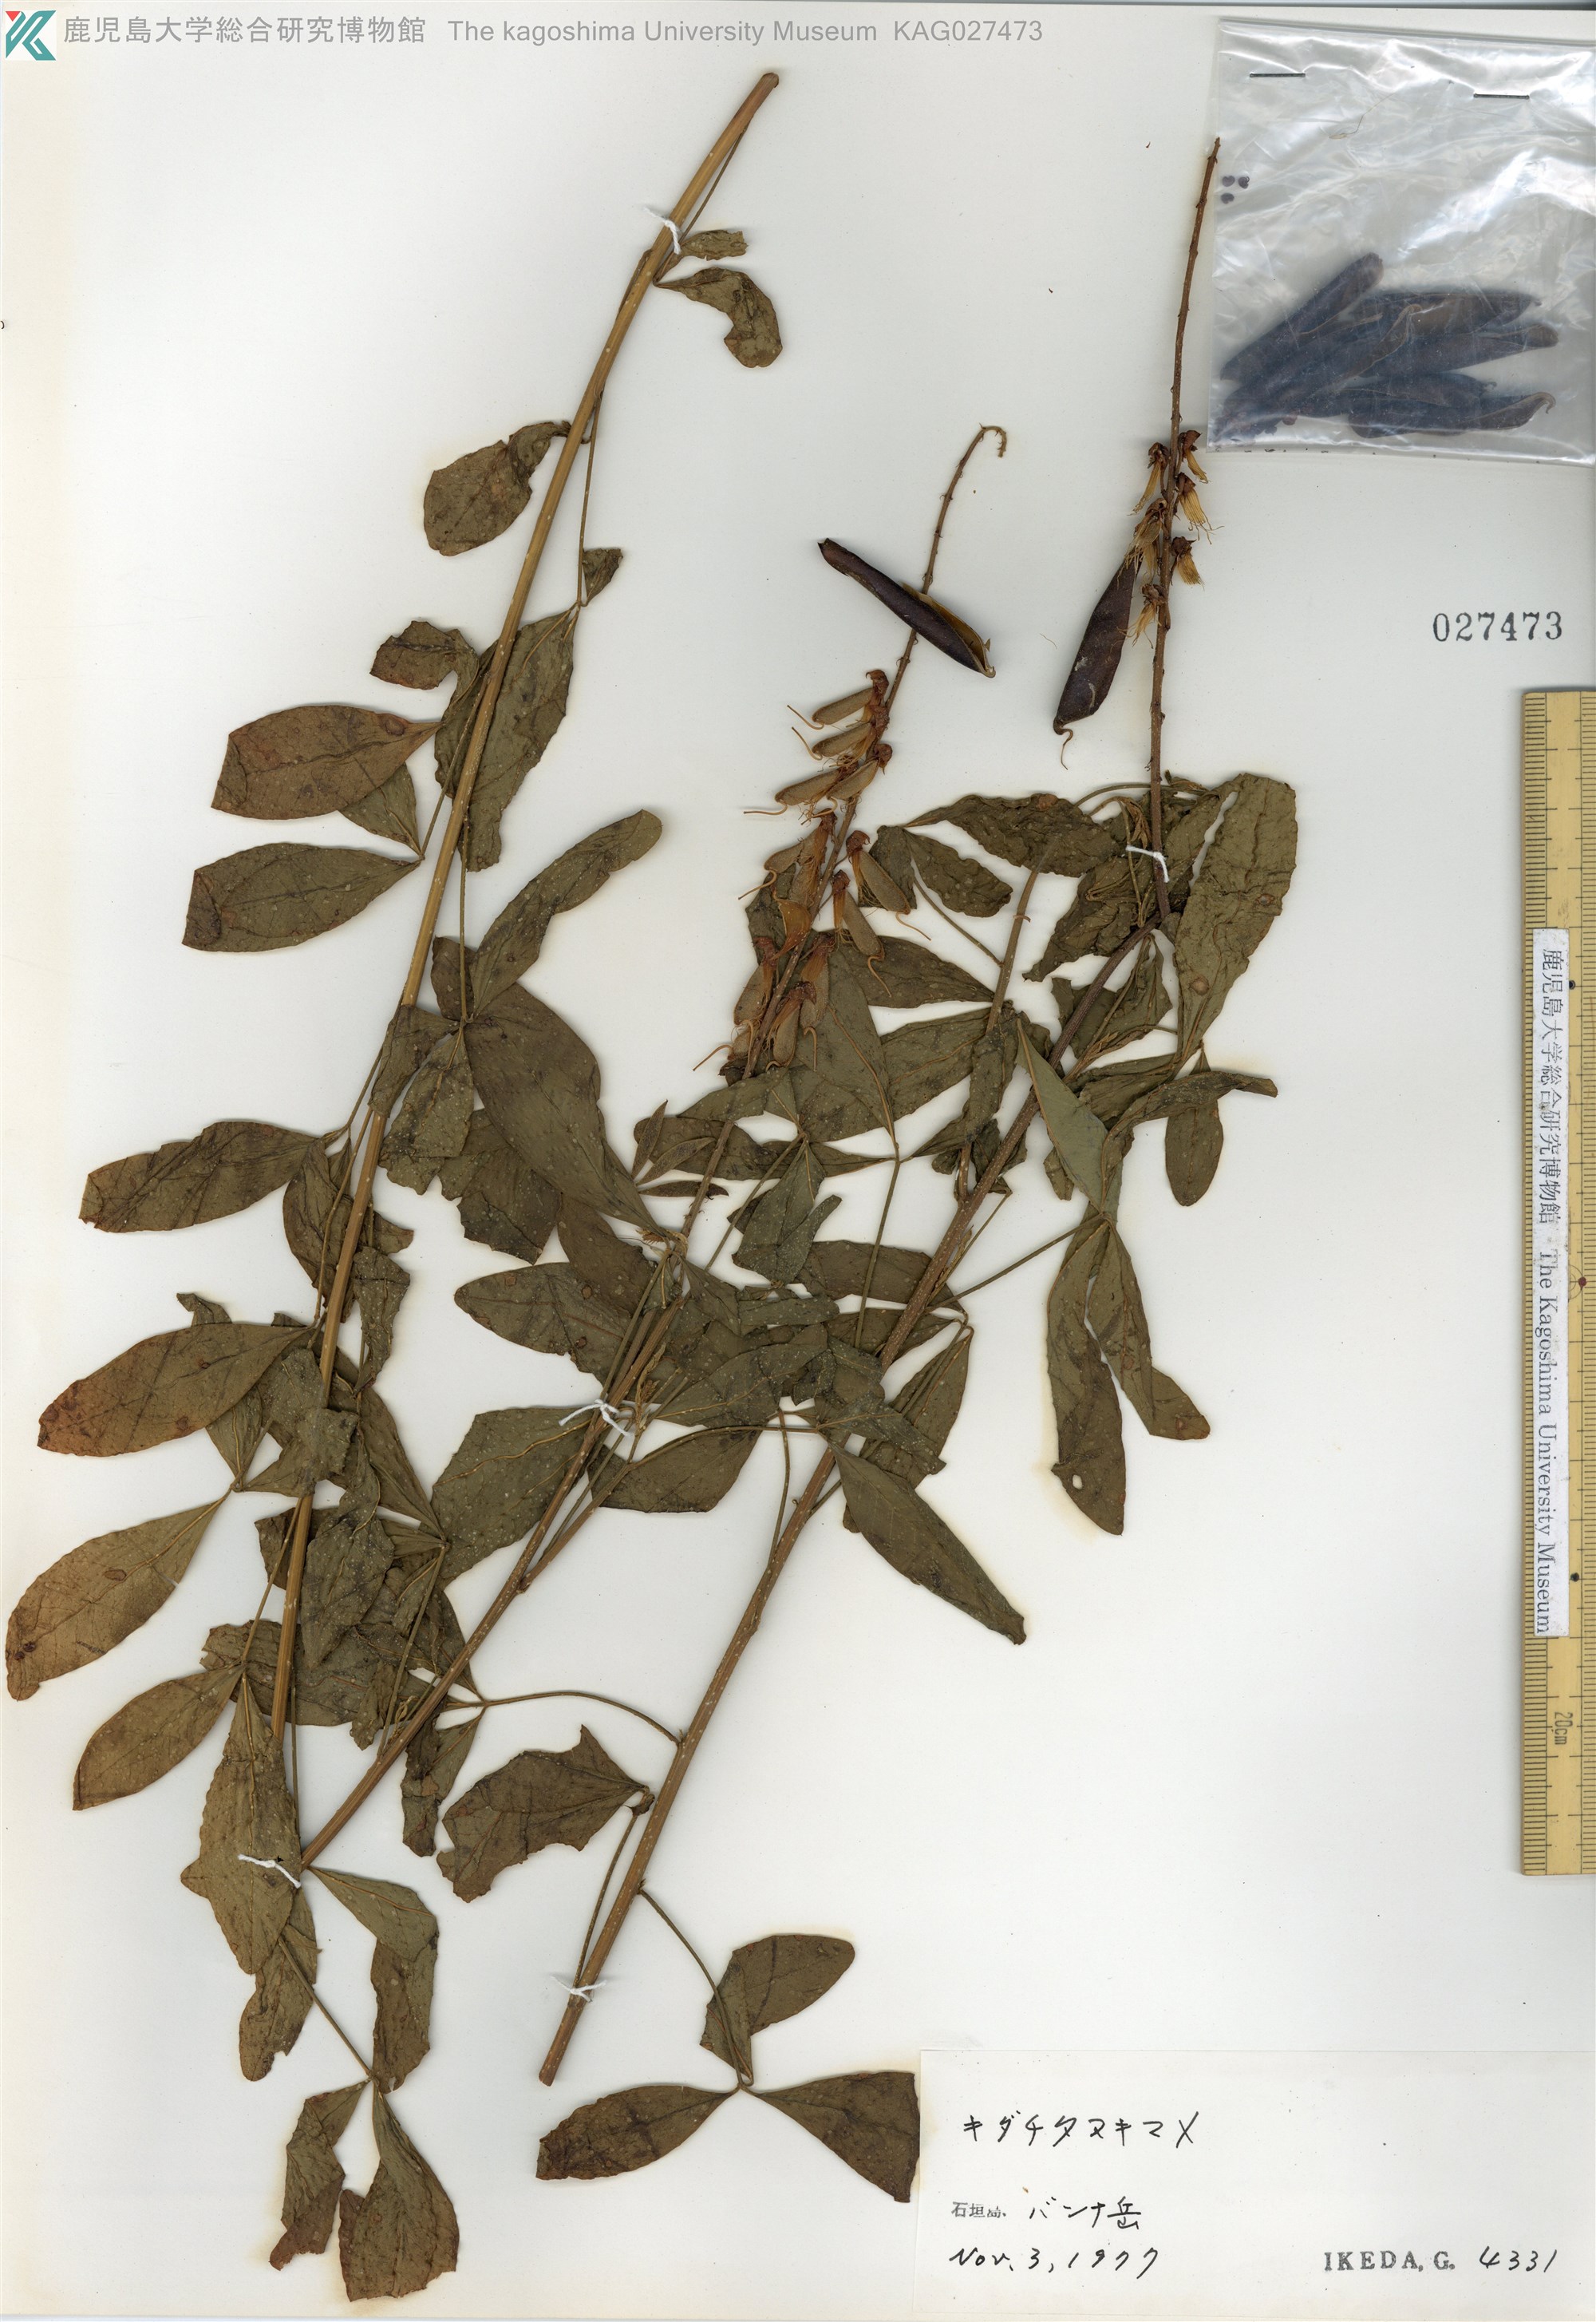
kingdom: Plantae
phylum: Tracheophyta
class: Magnoliopsida
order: Fabales
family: Fabaceae
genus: Crotalaria
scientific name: Crotalaria trichotoma
